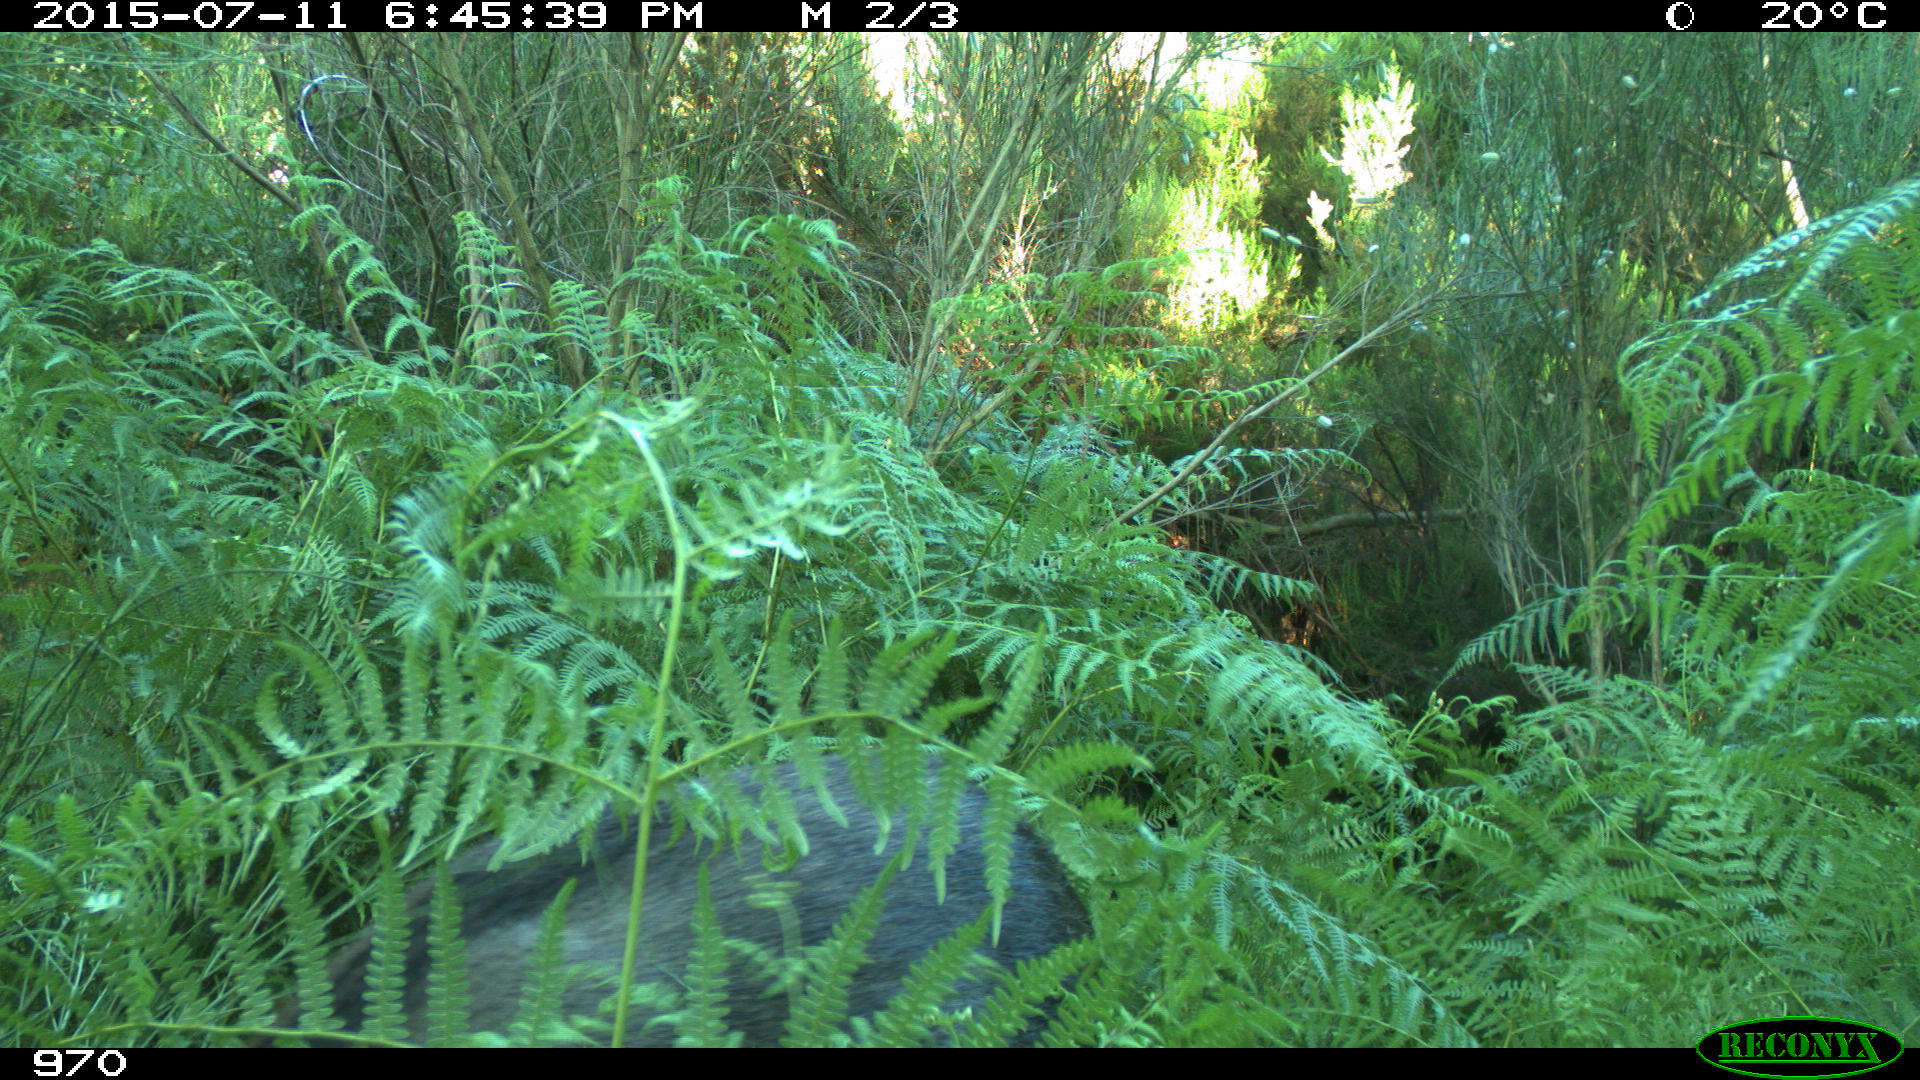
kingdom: Animalia
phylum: Chordata
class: Mammalia
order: Artiodactyla
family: Suidae
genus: Sus
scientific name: Sus scrofa
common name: Wild boar
